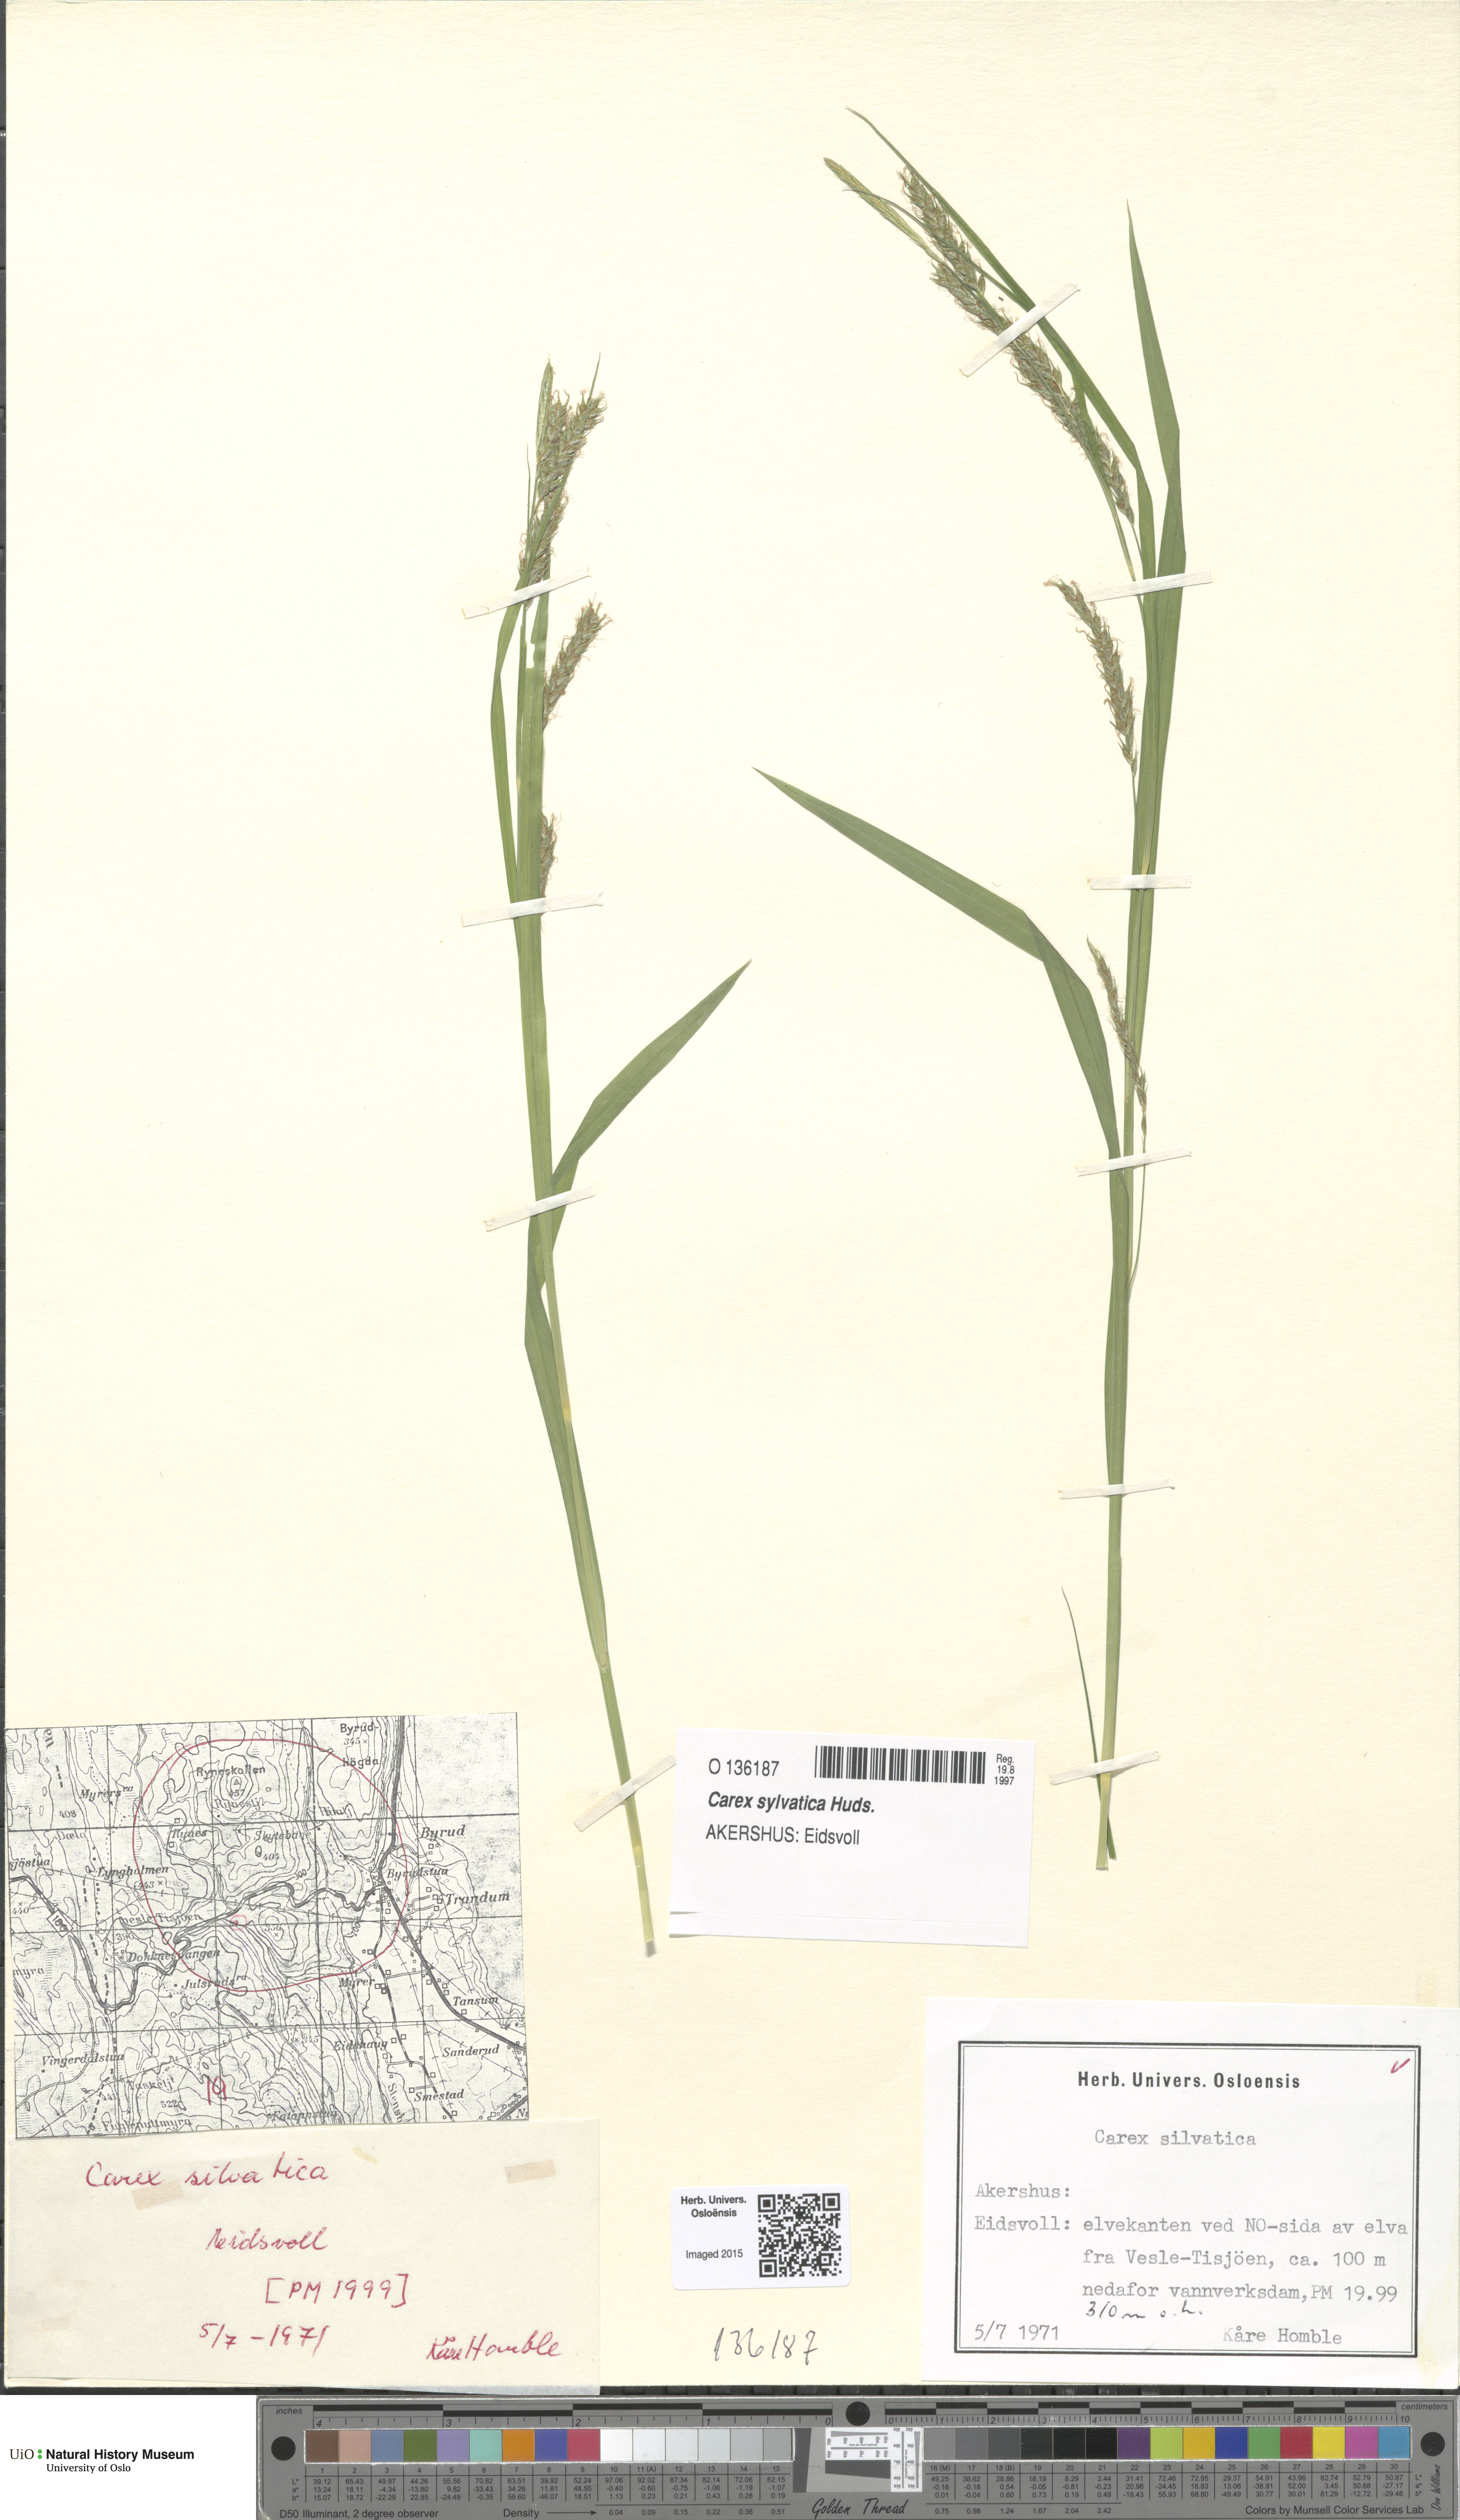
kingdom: Plantae
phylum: Tracheophyta
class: Liliopsida
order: Poales
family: Cyperaceae
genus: Carex
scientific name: Carex sylvatica
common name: Wood-sedge
